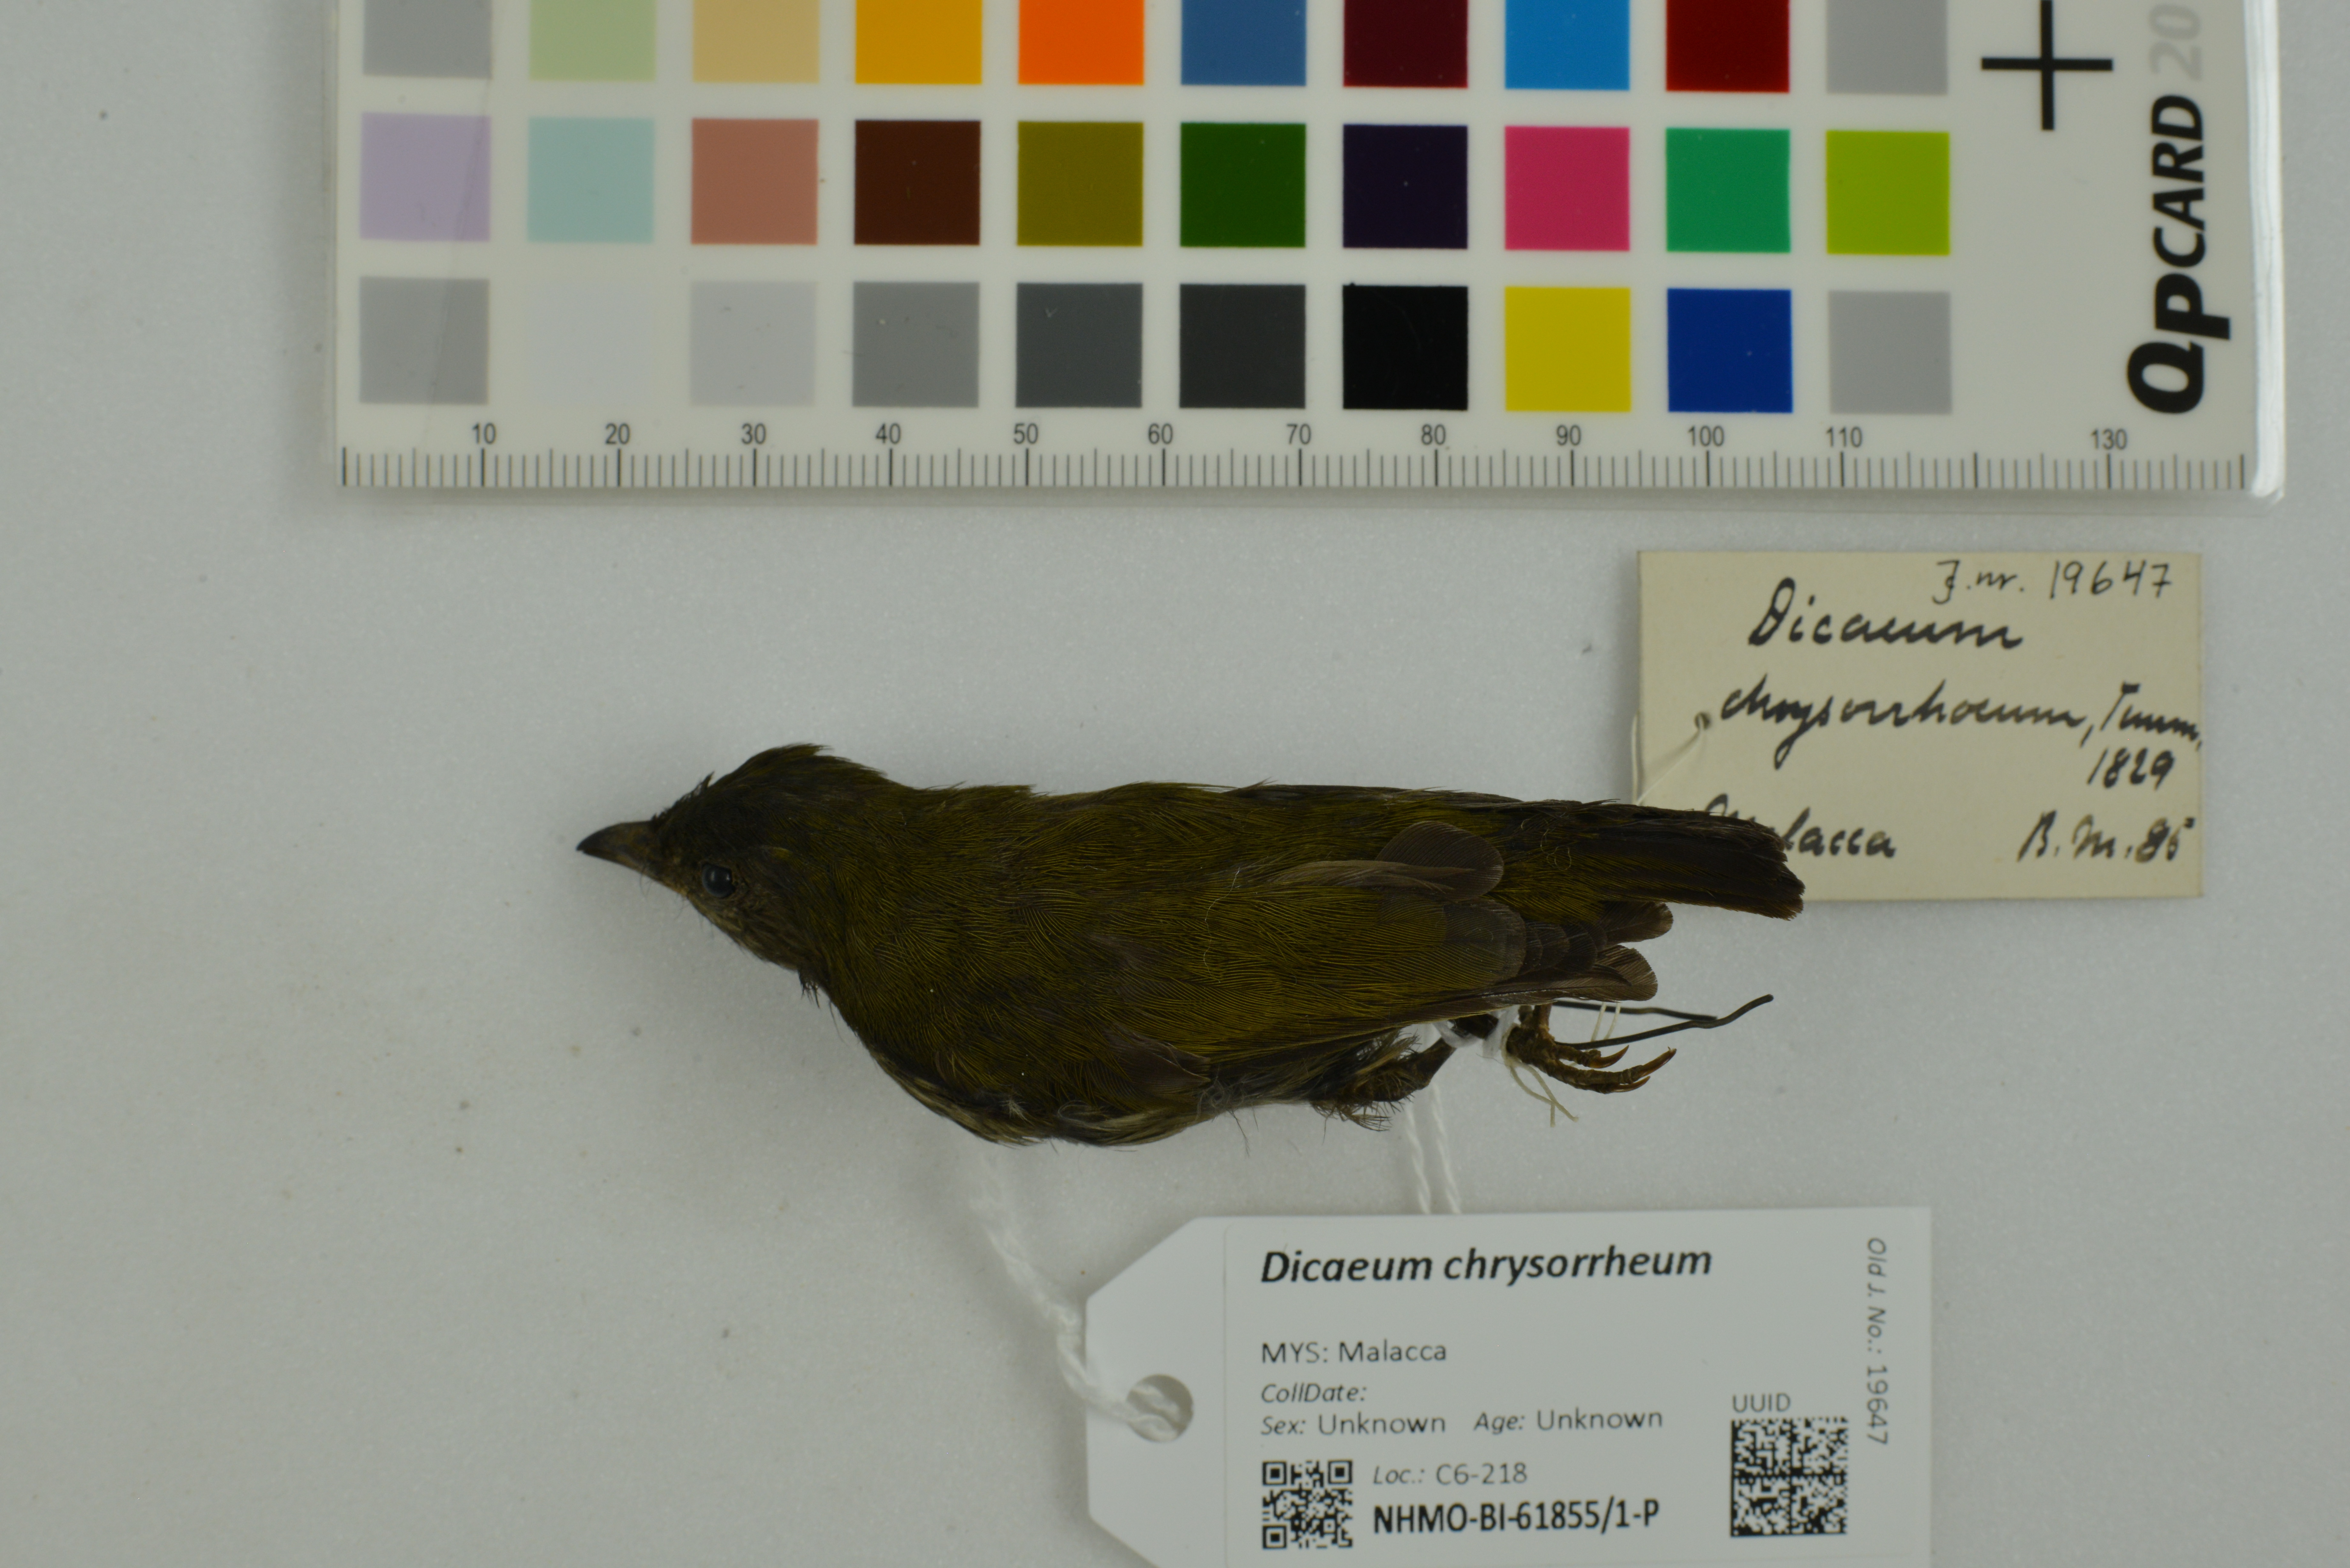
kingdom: Animalia
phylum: Chordata
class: Aves
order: Passeriformes
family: Dicaeidae
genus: Dicaeum
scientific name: Dicaeum chrysorrheum
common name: Yellow-vented flowerpecker
